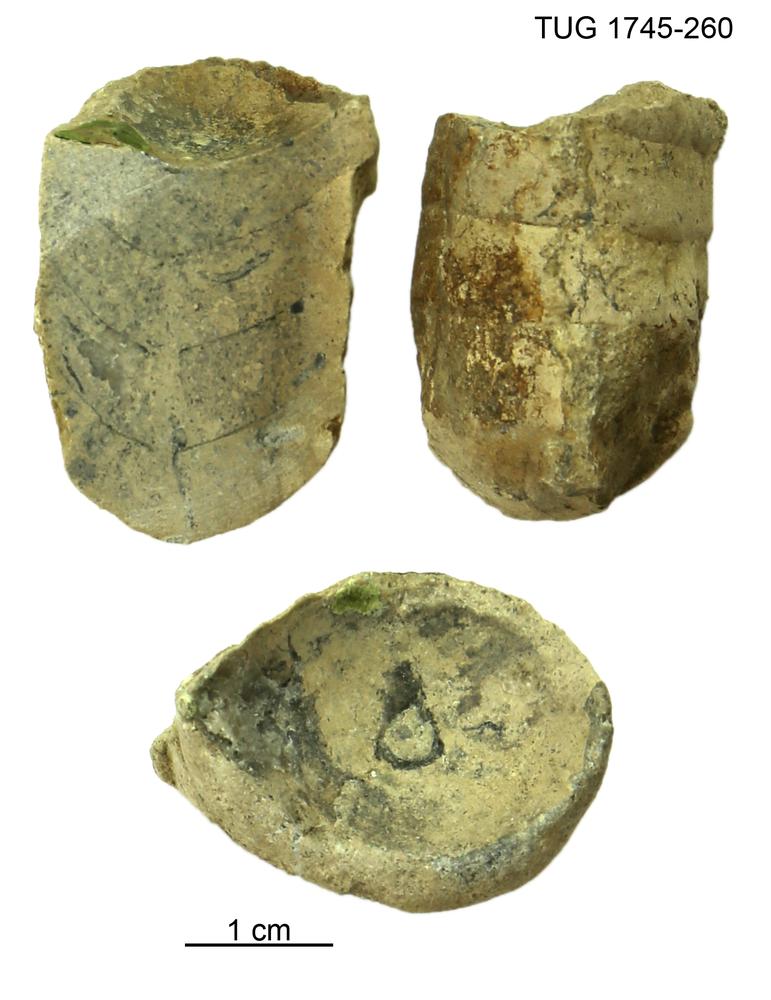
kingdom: Animalia
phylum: Mollusca
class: Cephalopoda
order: Orthocerida
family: Orthoceratidae
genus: Orthoceras
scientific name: Orthoceras
